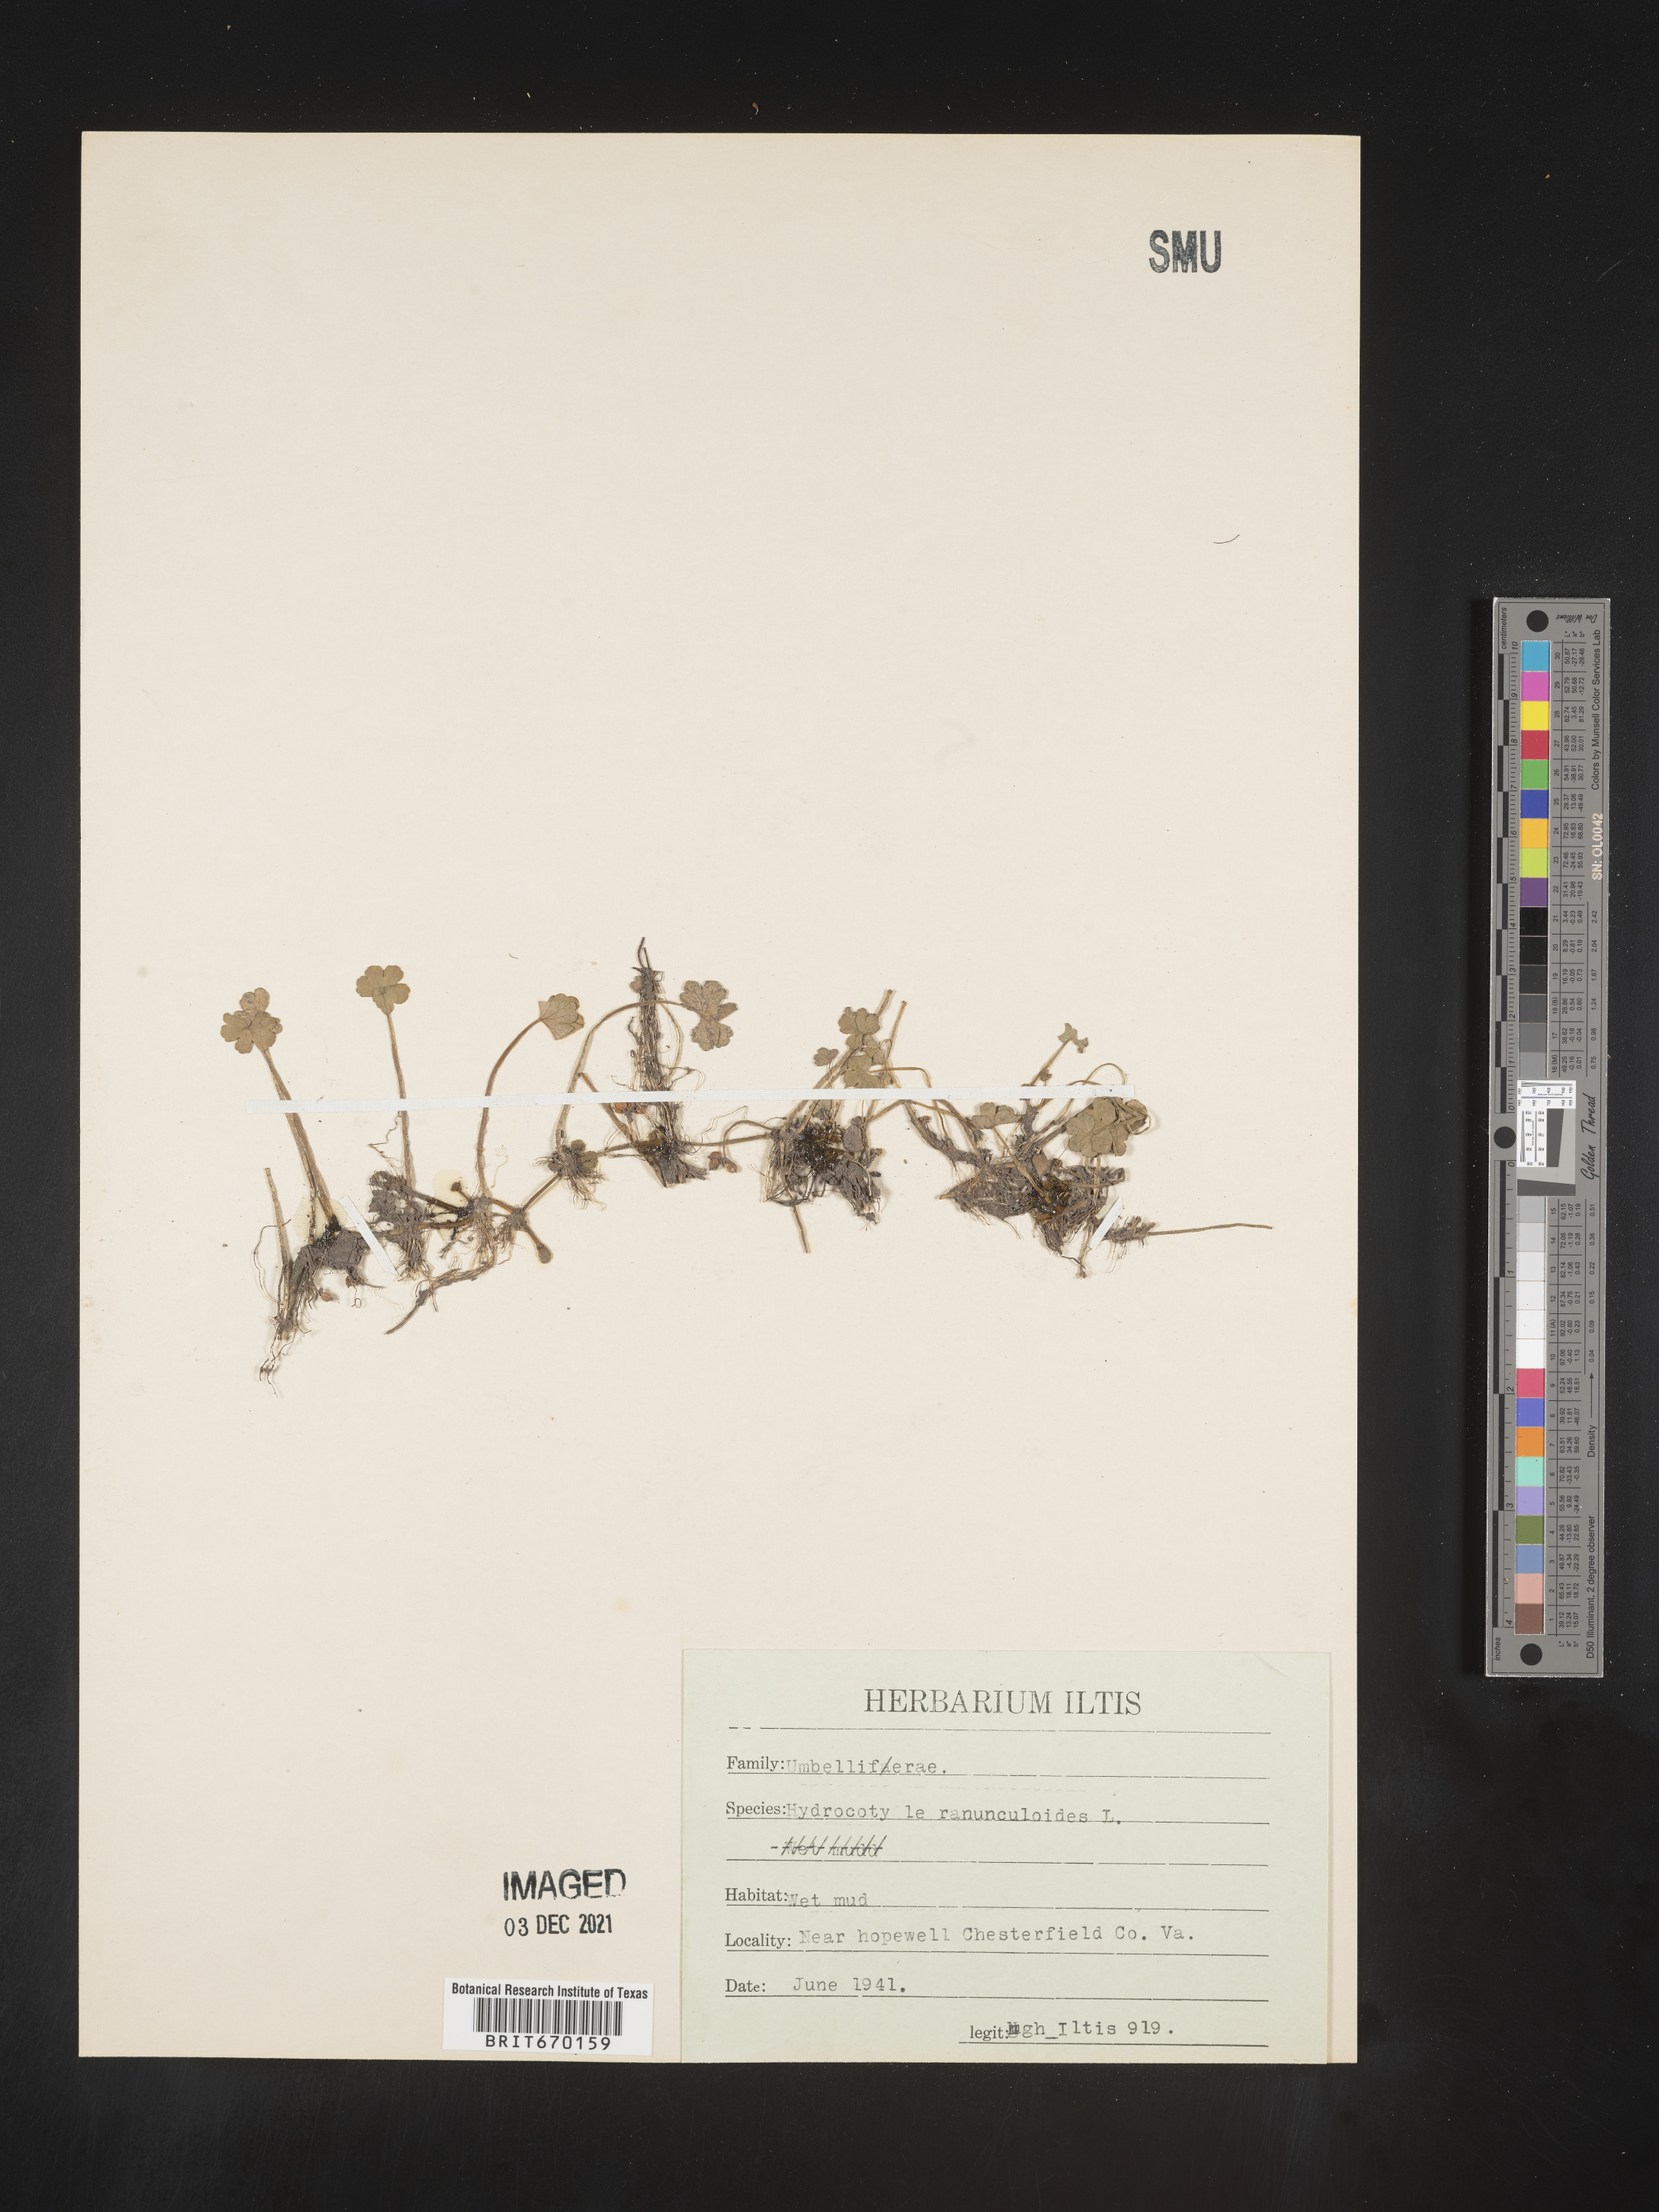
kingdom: Plantae
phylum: Tracheophyta
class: Magnoliopsida
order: Apiales
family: Araliaceae
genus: Hydrocotyle
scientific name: Hydrocotyle ranunculoides
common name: Floating pennywort
